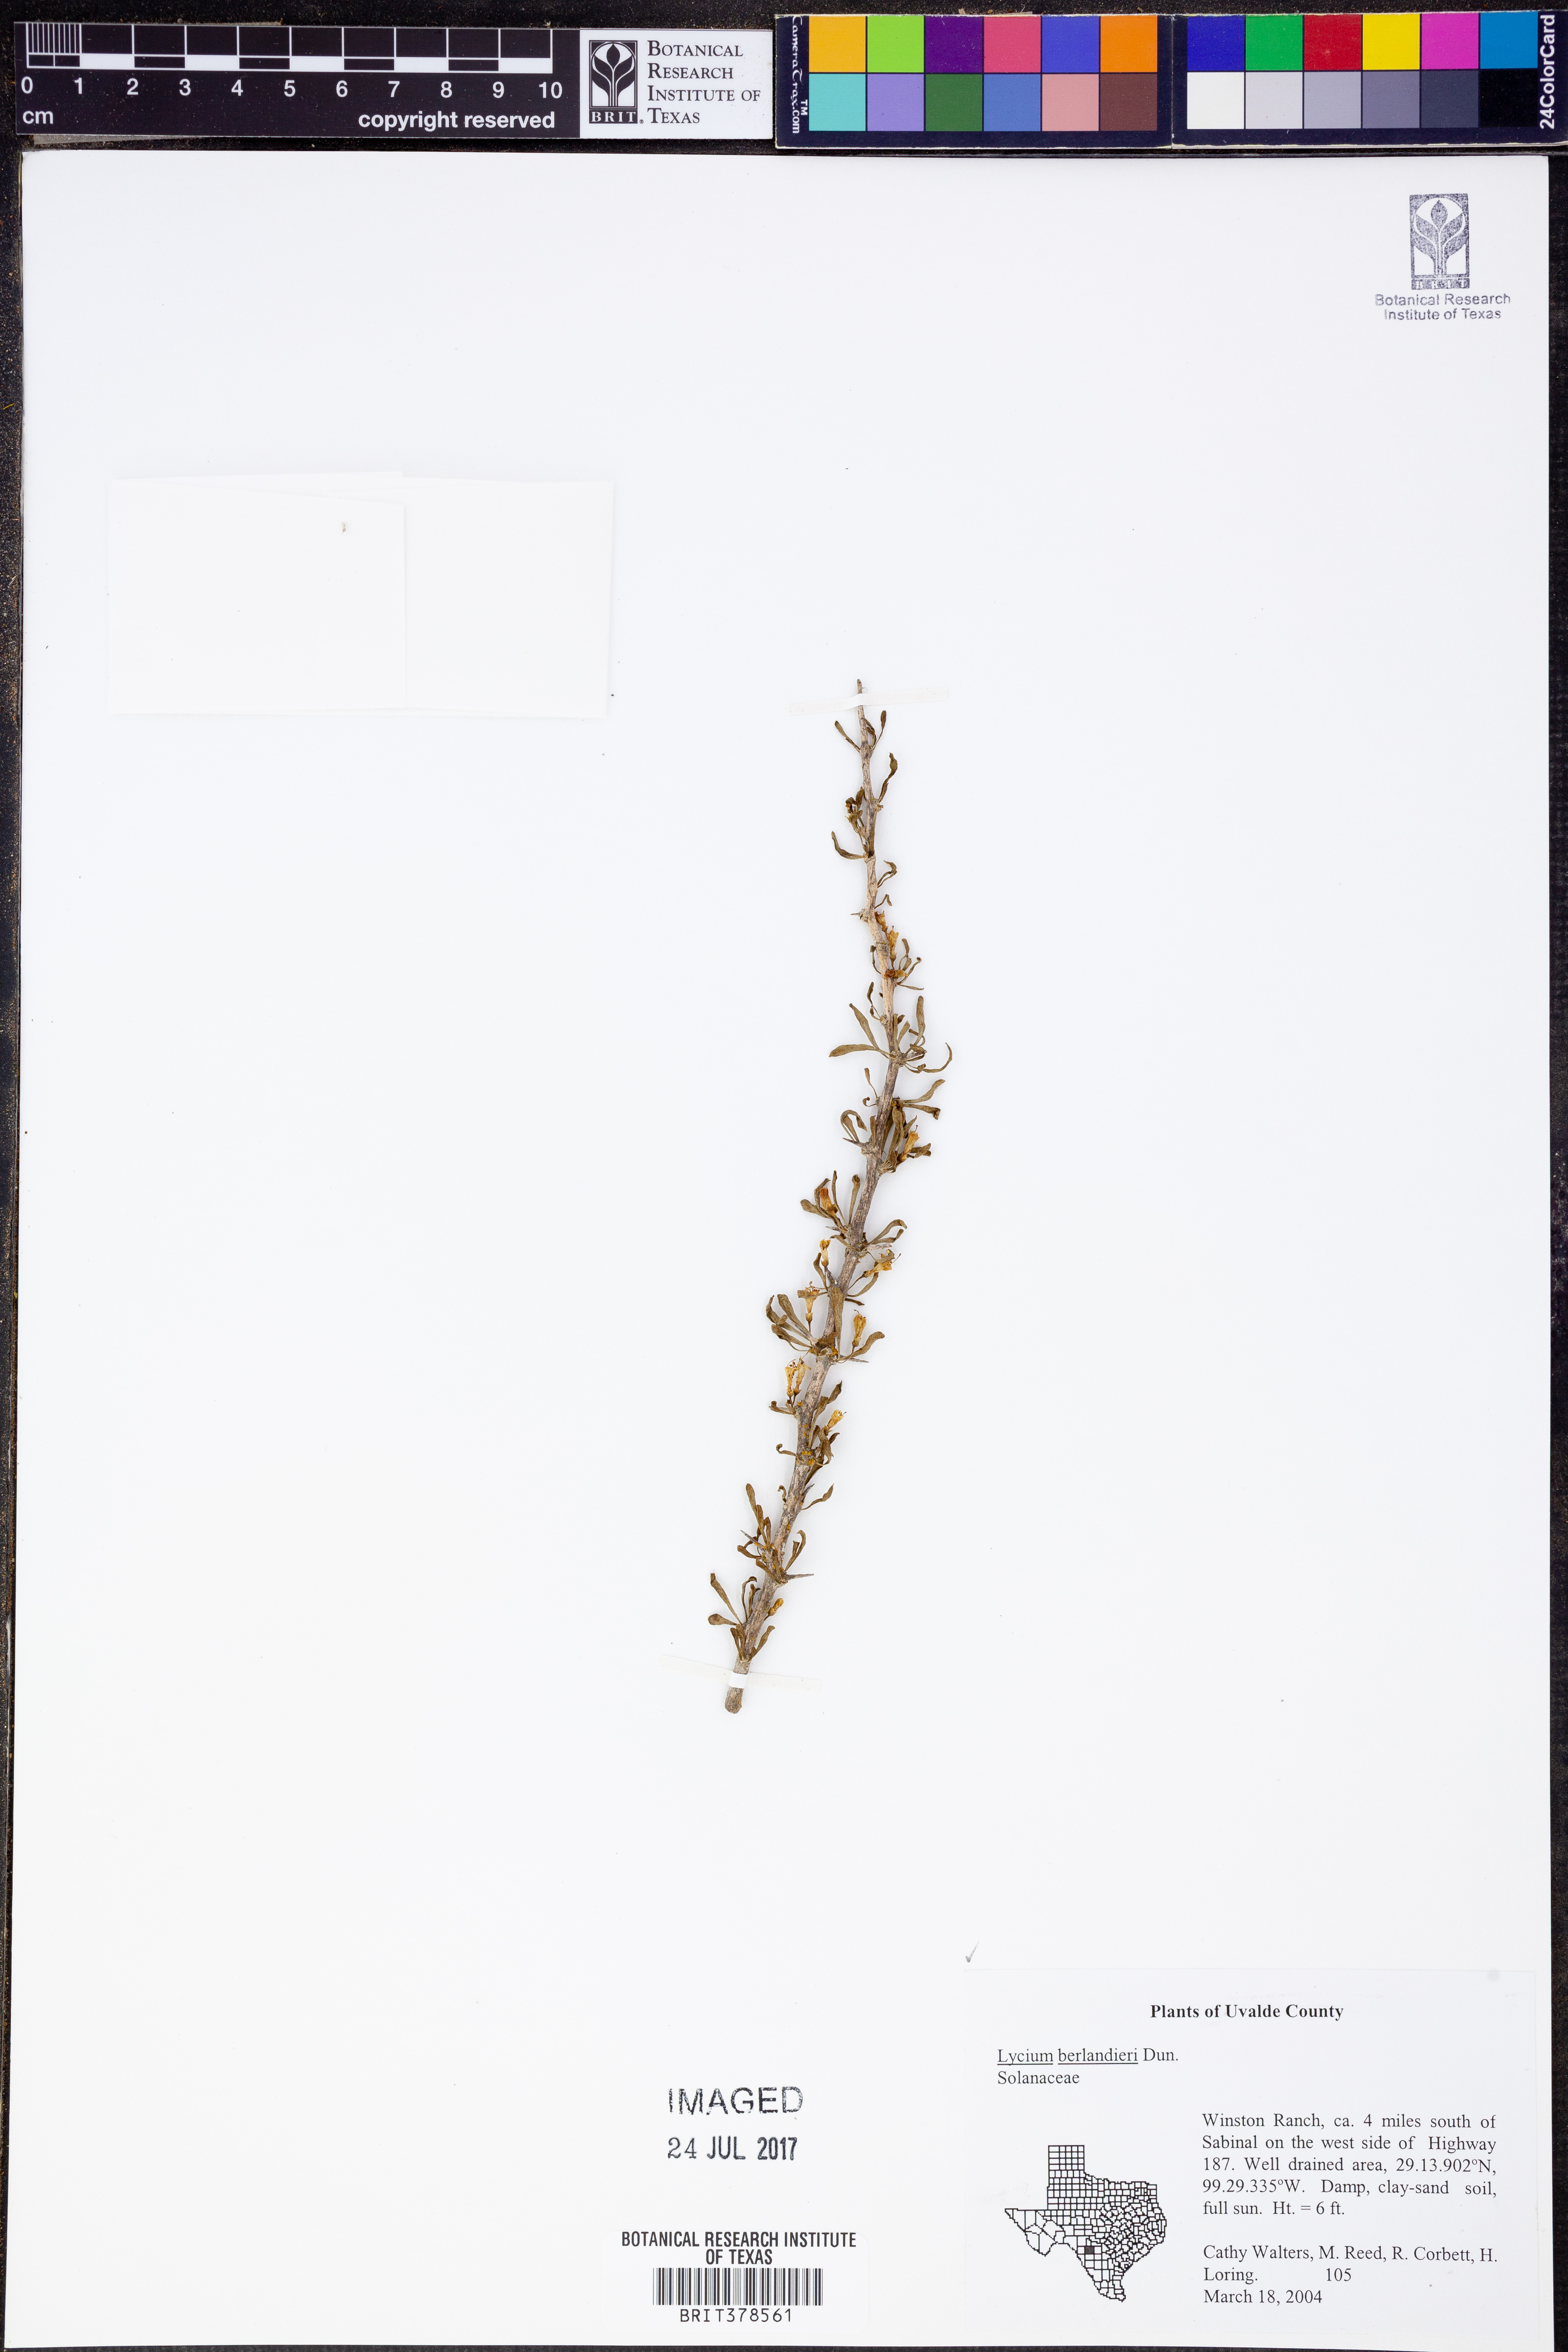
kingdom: Plantae
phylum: Tracheophyta
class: Magnoliopsida
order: Solanales
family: Solanaceae
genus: Lycium
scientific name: Lycium berlandieri
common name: Berlandier wolfberry
